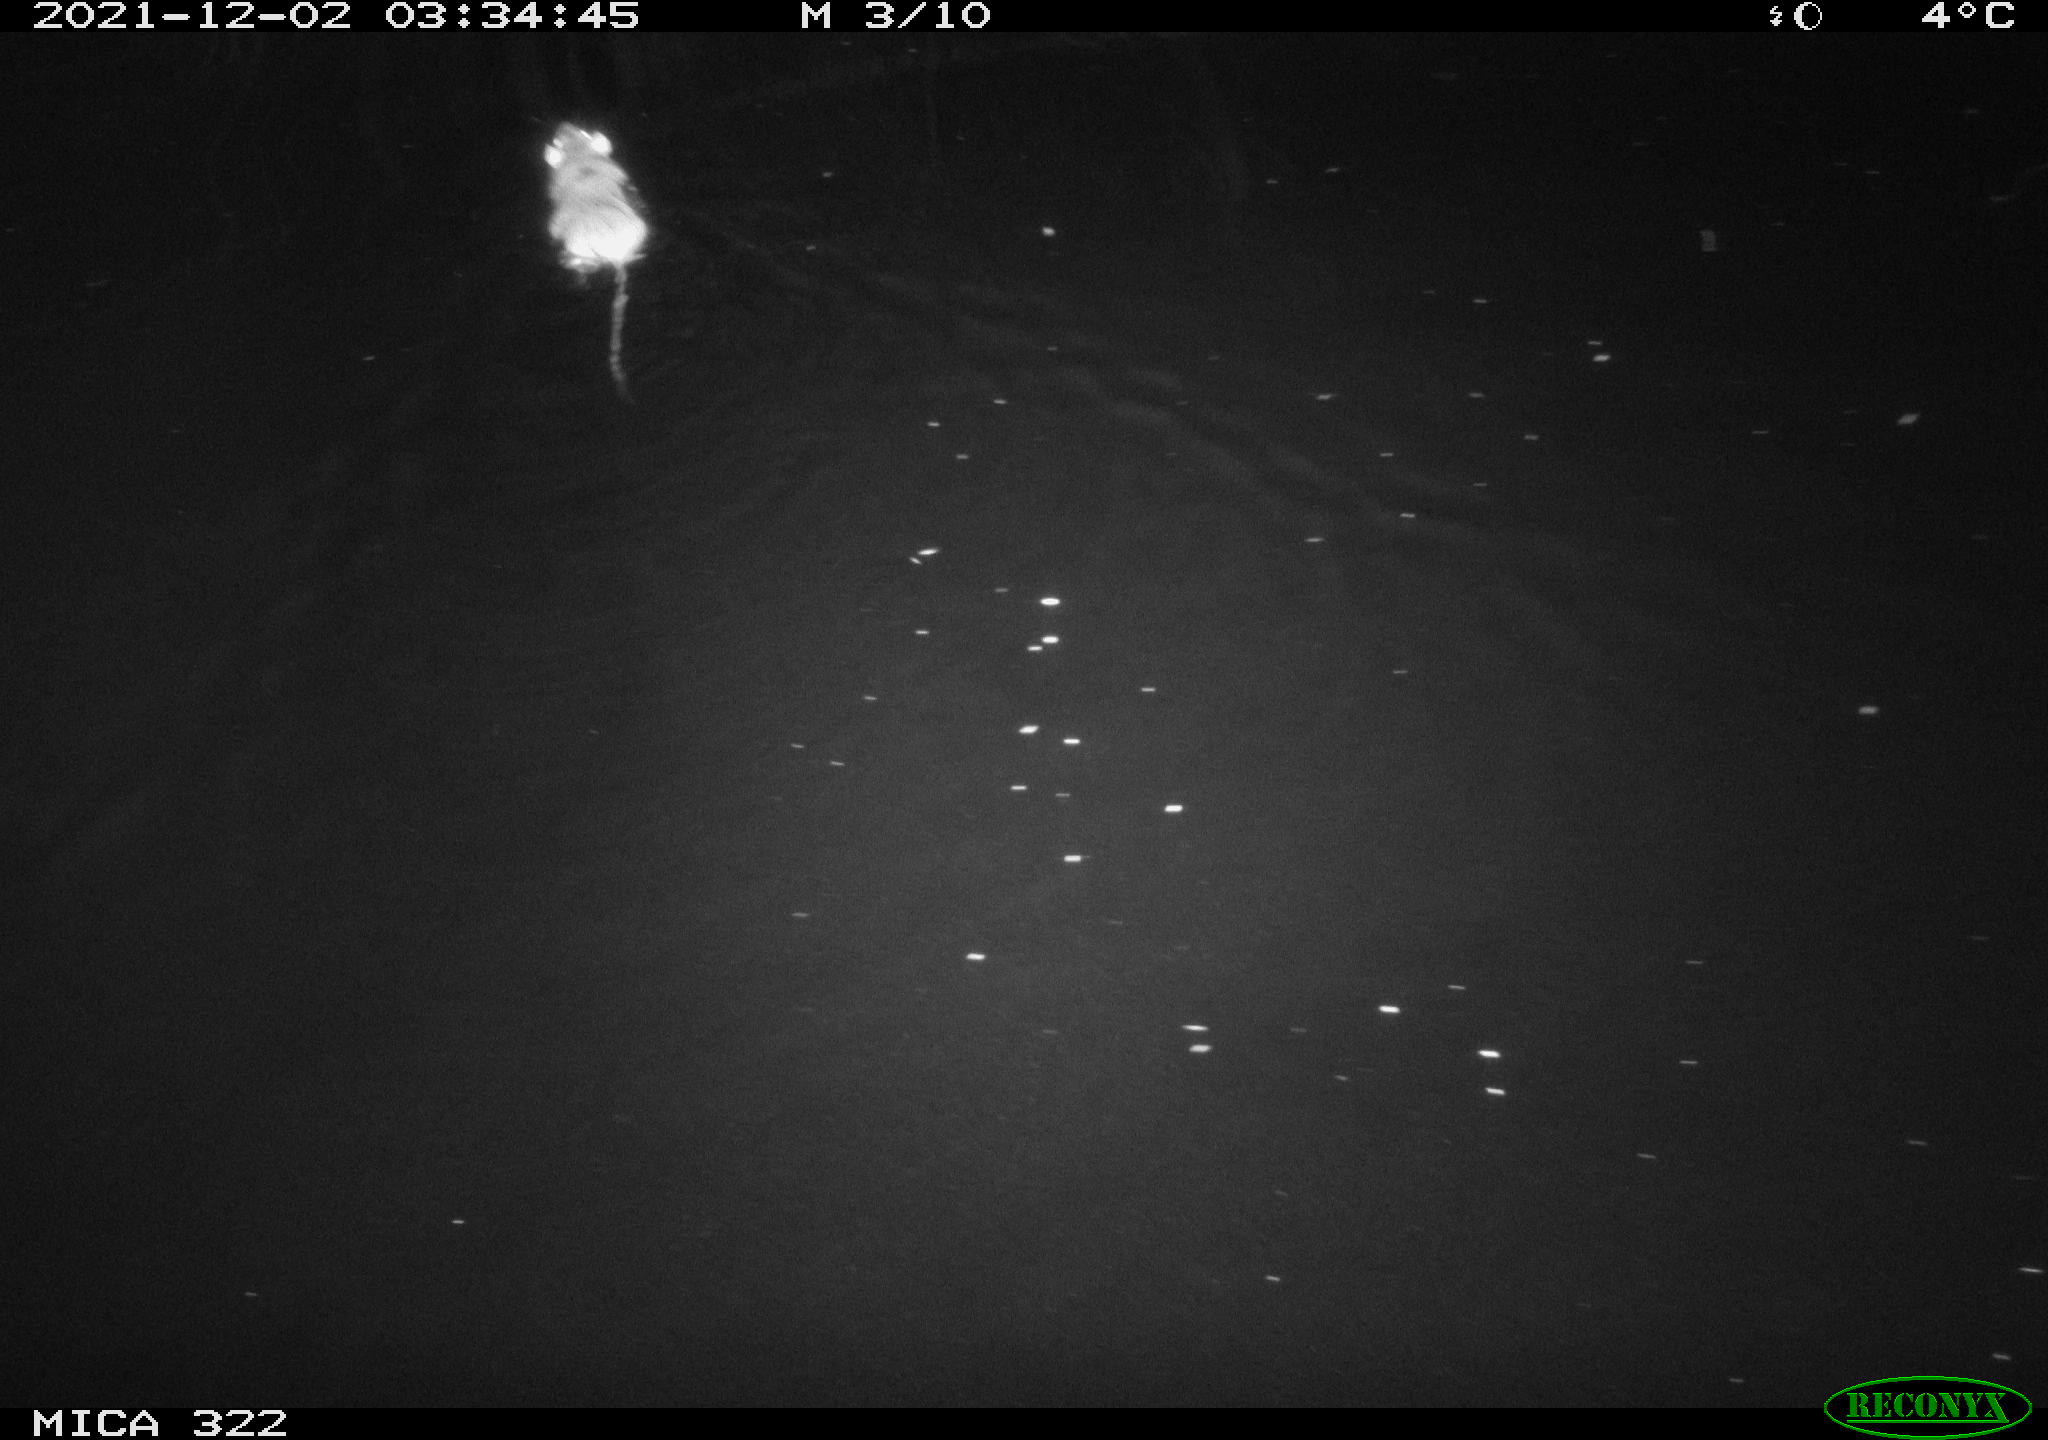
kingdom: Animalia
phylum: Chordata
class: Mammalia
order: Rodentia
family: Muridae
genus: Rattus
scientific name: Rattus norvegicus
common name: Brown rat
